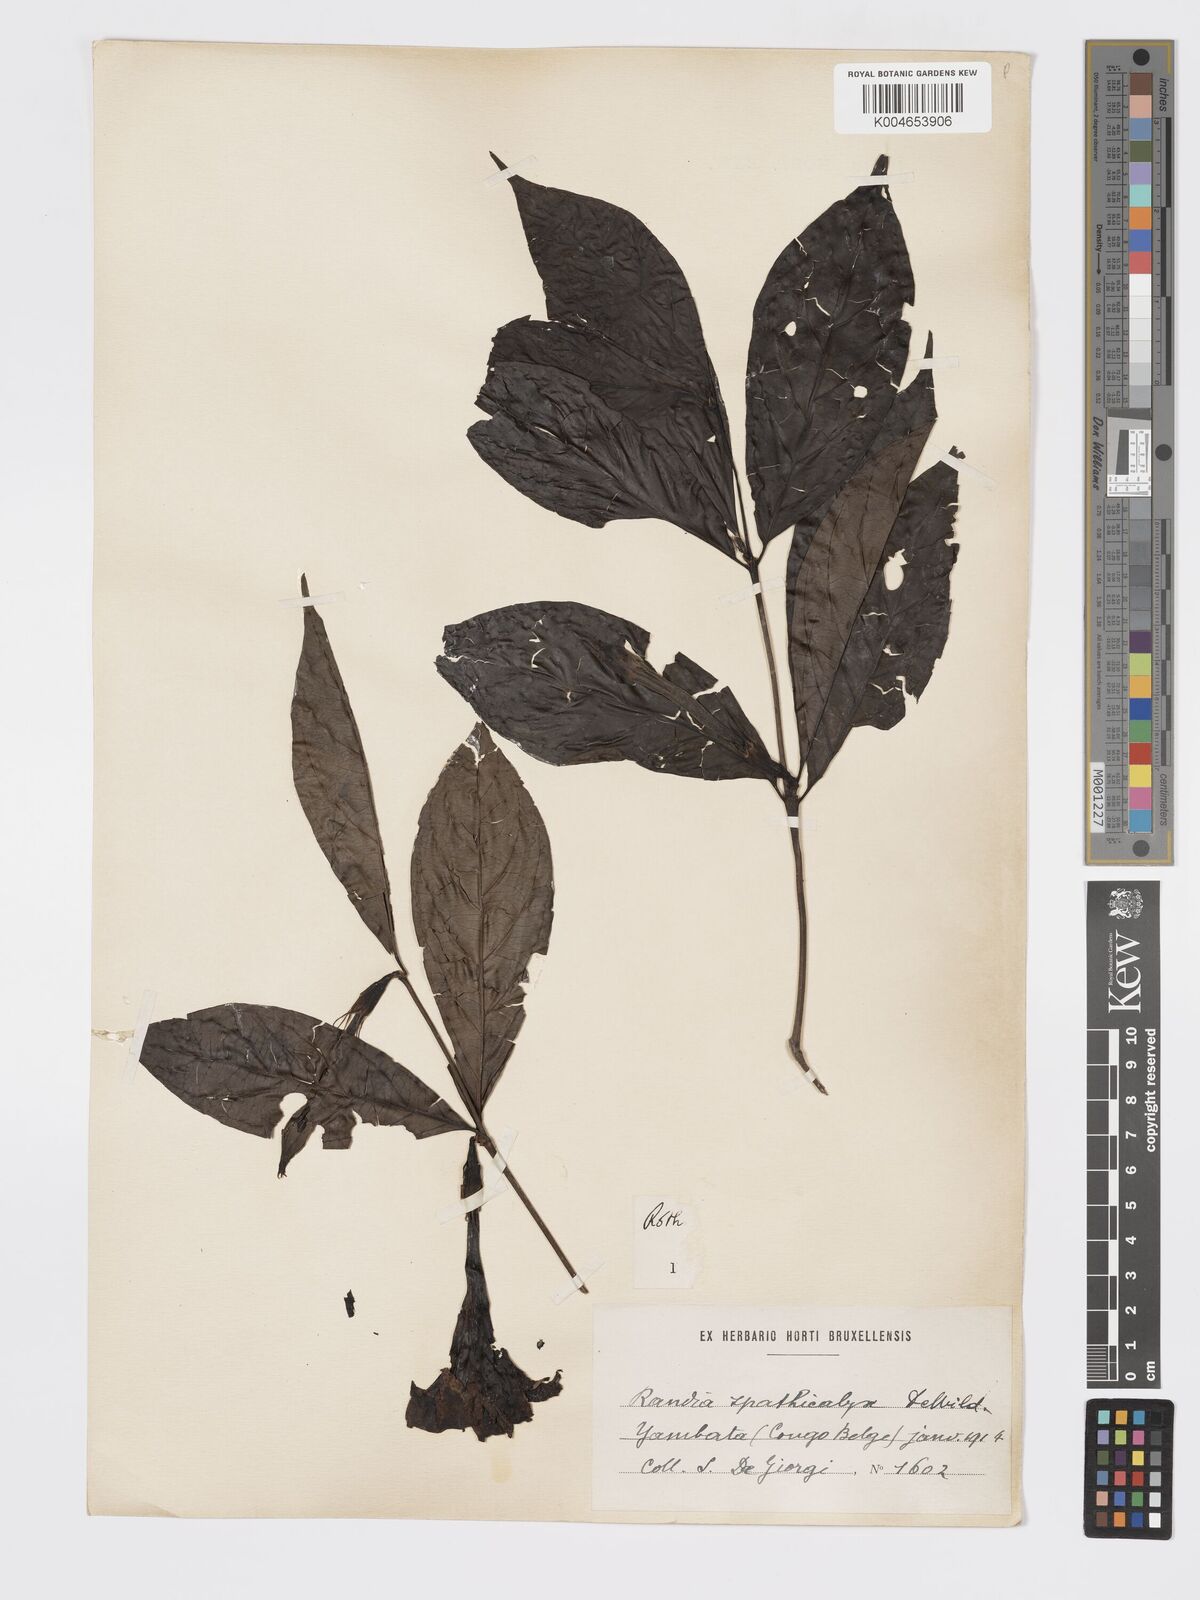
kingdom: Plantae
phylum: Tracheophyta
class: Magnoliopsida
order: Gentianales
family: Rubiaceae
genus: Rothmannia
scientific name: Rothmannia urcelliformis
